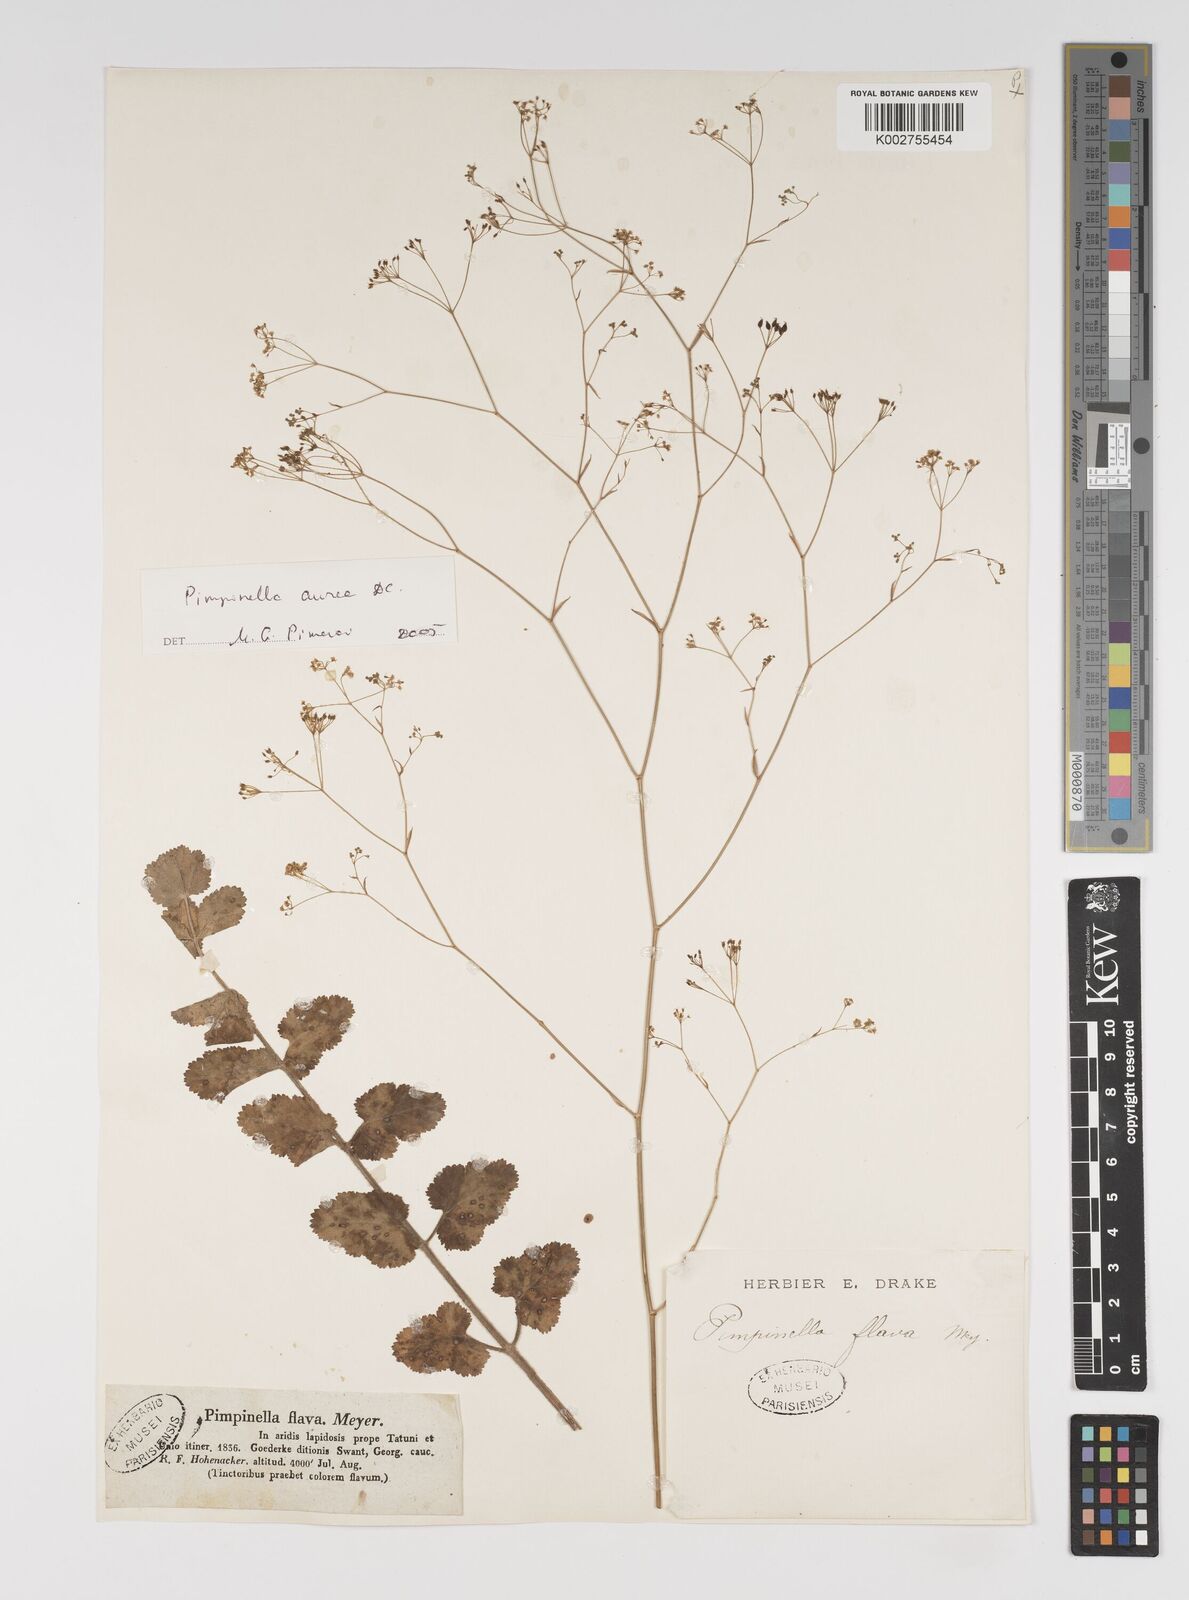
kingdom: Plantae
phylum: Tracheophyta
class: Magnoliopsida
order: Apiales
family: Apiaceae
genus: Pimpinella
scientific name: Pimpinella aurea
